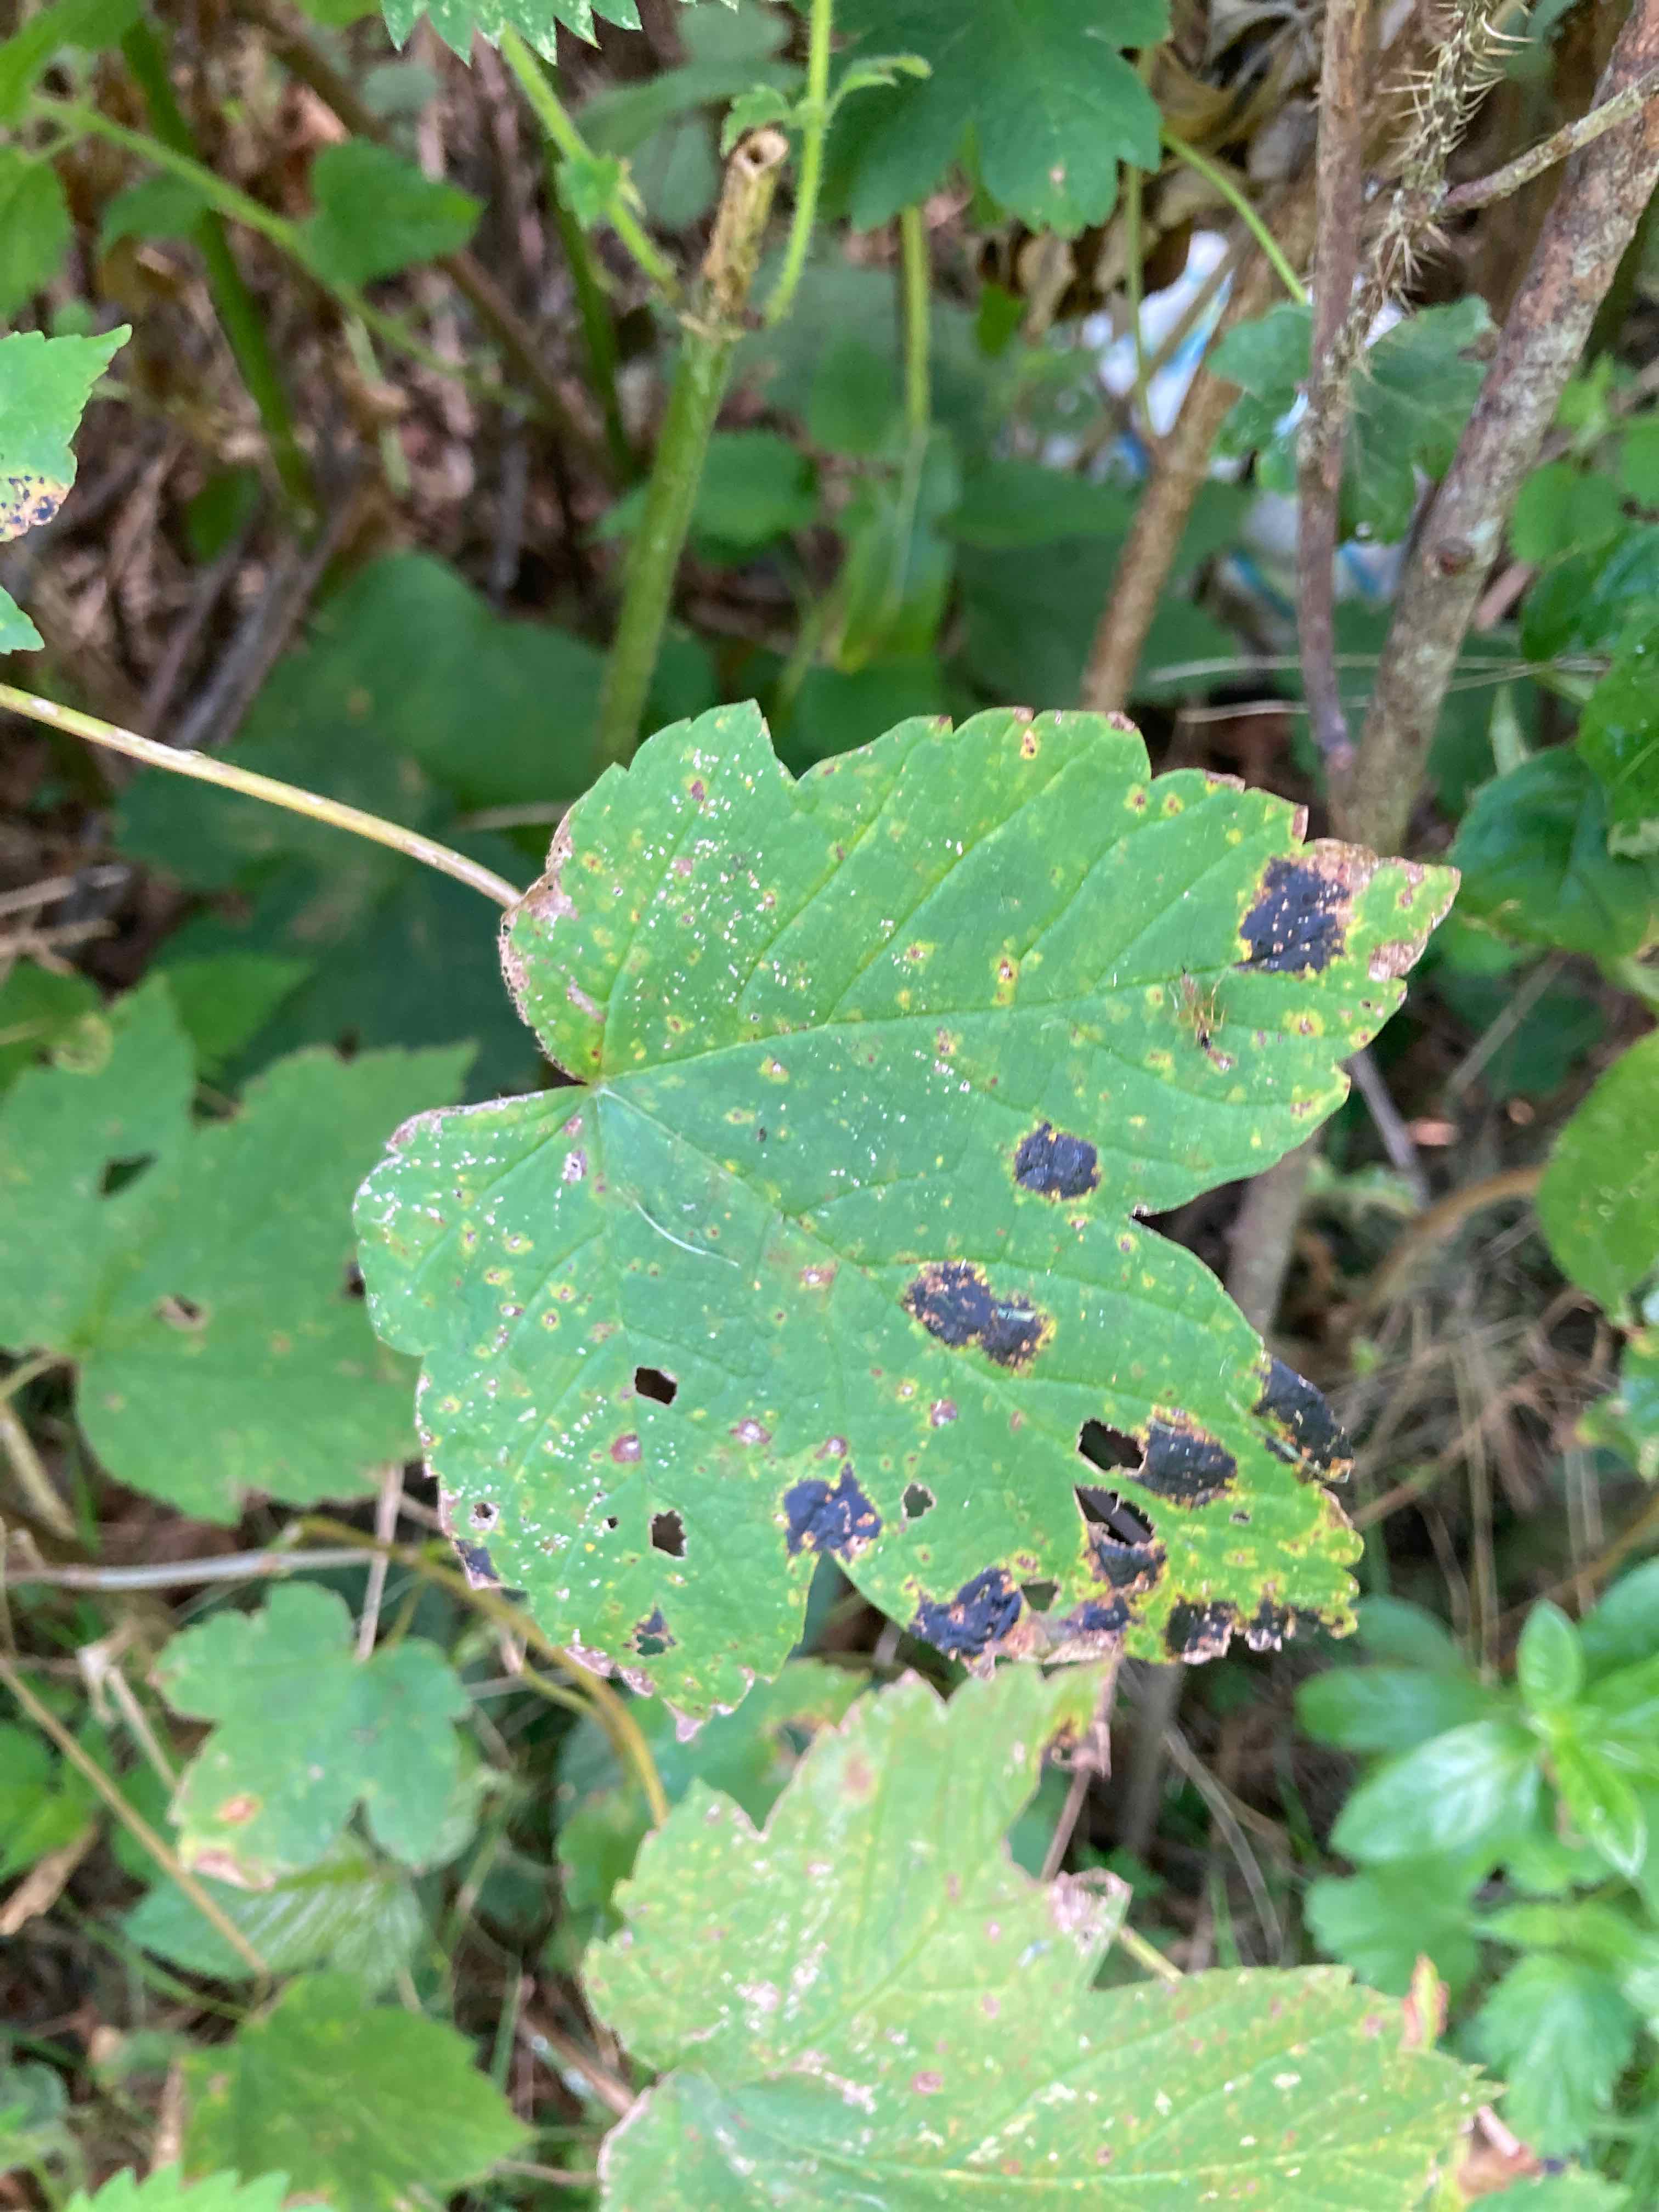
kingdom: Fungi
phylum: Ascomycota
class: Leotiomycetes
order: Rhytismatales
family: Rhytismataceae
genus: Rhytisma
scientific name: Rhytisma acerinum
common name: ahorn-rynkeplet
